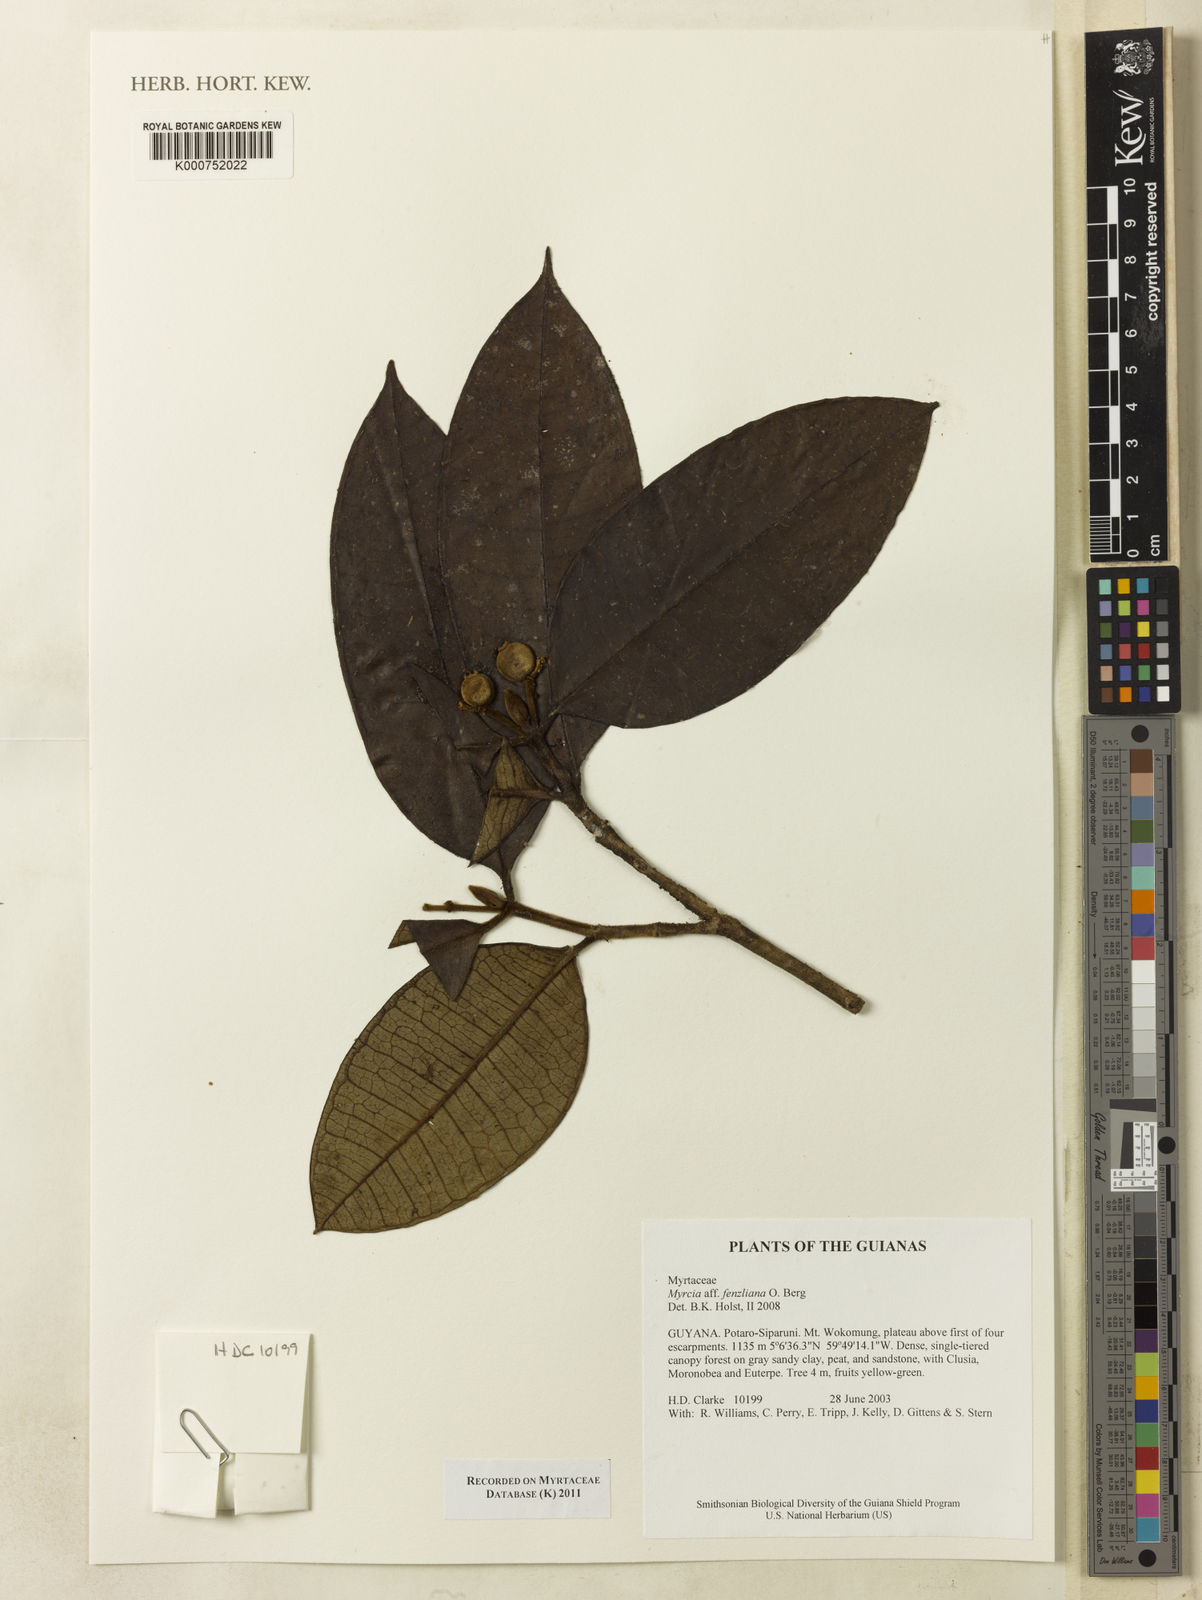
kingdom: Plantae
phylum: Tracheophyta
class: Magnoliopsida
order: Myrtales
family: Myrtaceae
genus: Myrcia
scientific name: Myrcia fenzliana
